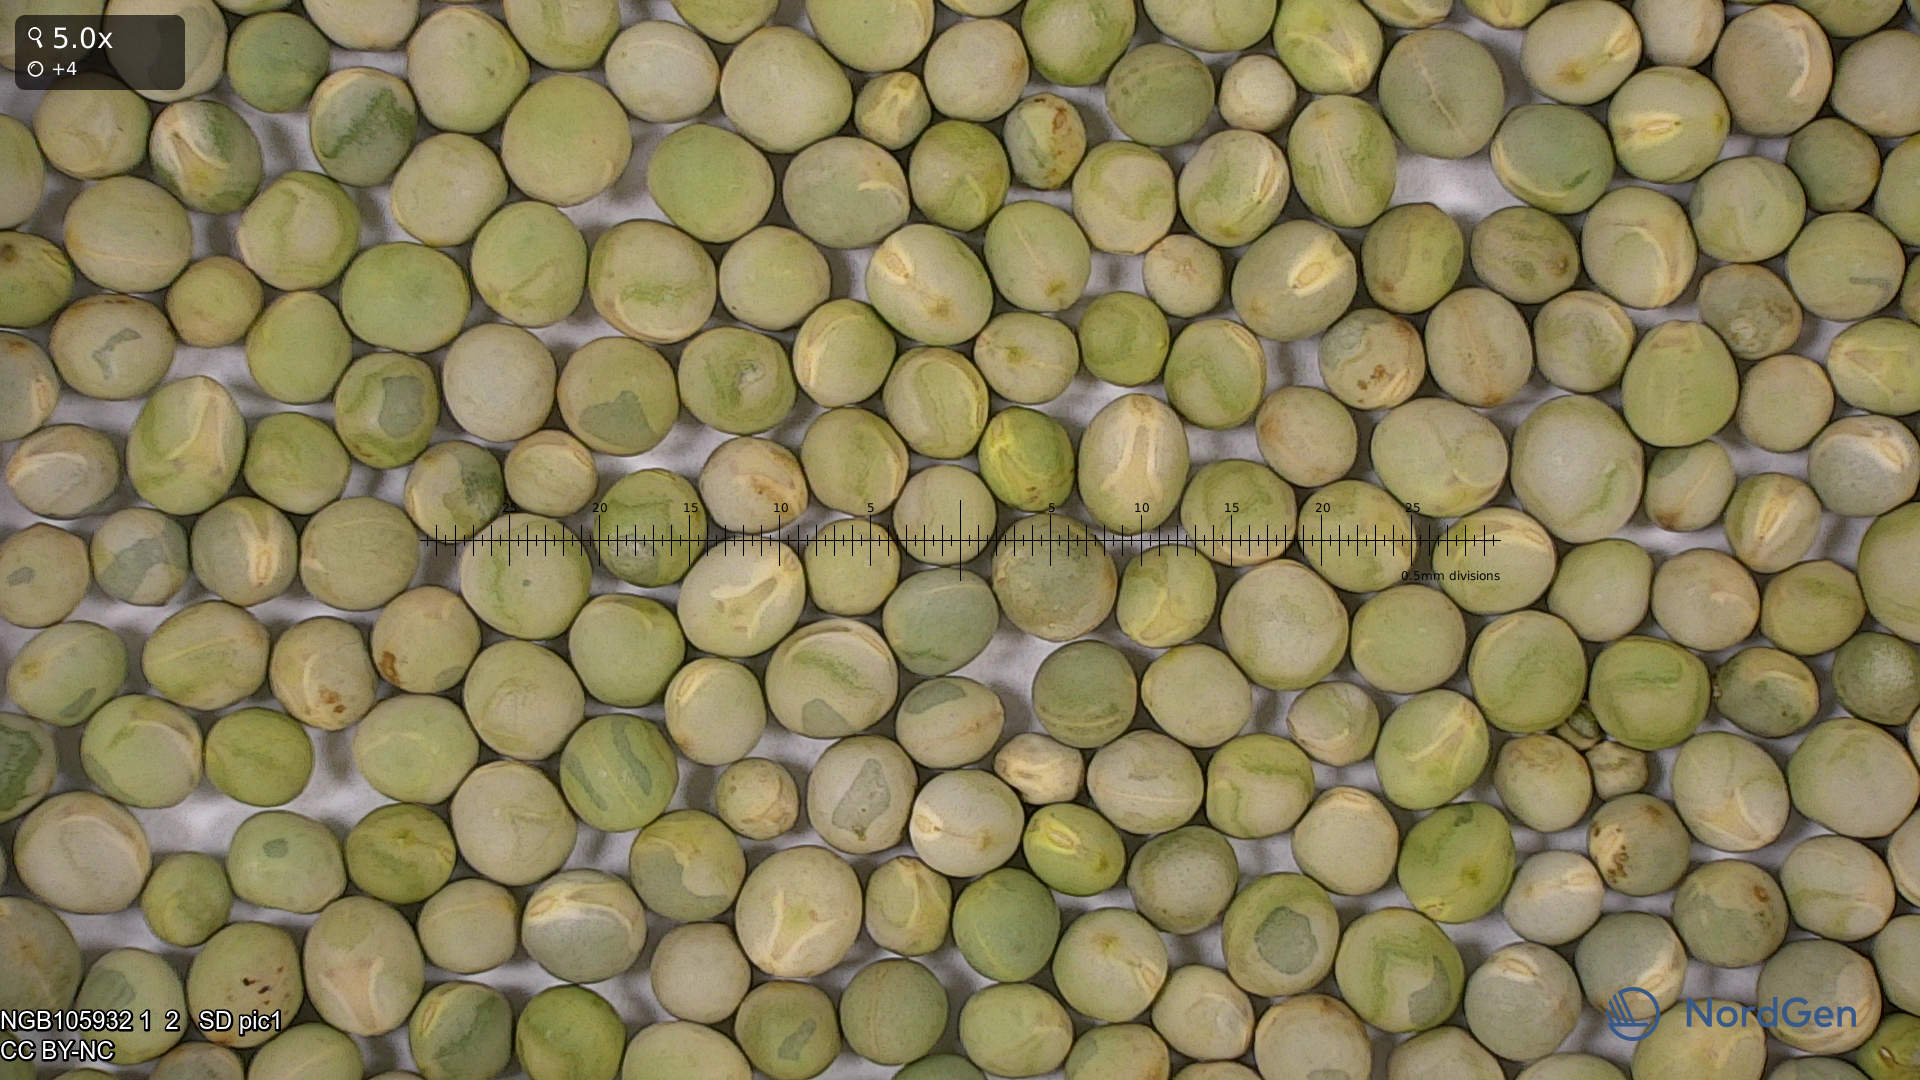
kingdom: Plantae
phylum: Tracheophyta
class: Magnoliopsida
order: Fabales
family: Fabaceae
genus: Lathyrus
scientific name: Lathyrus oleraceus
